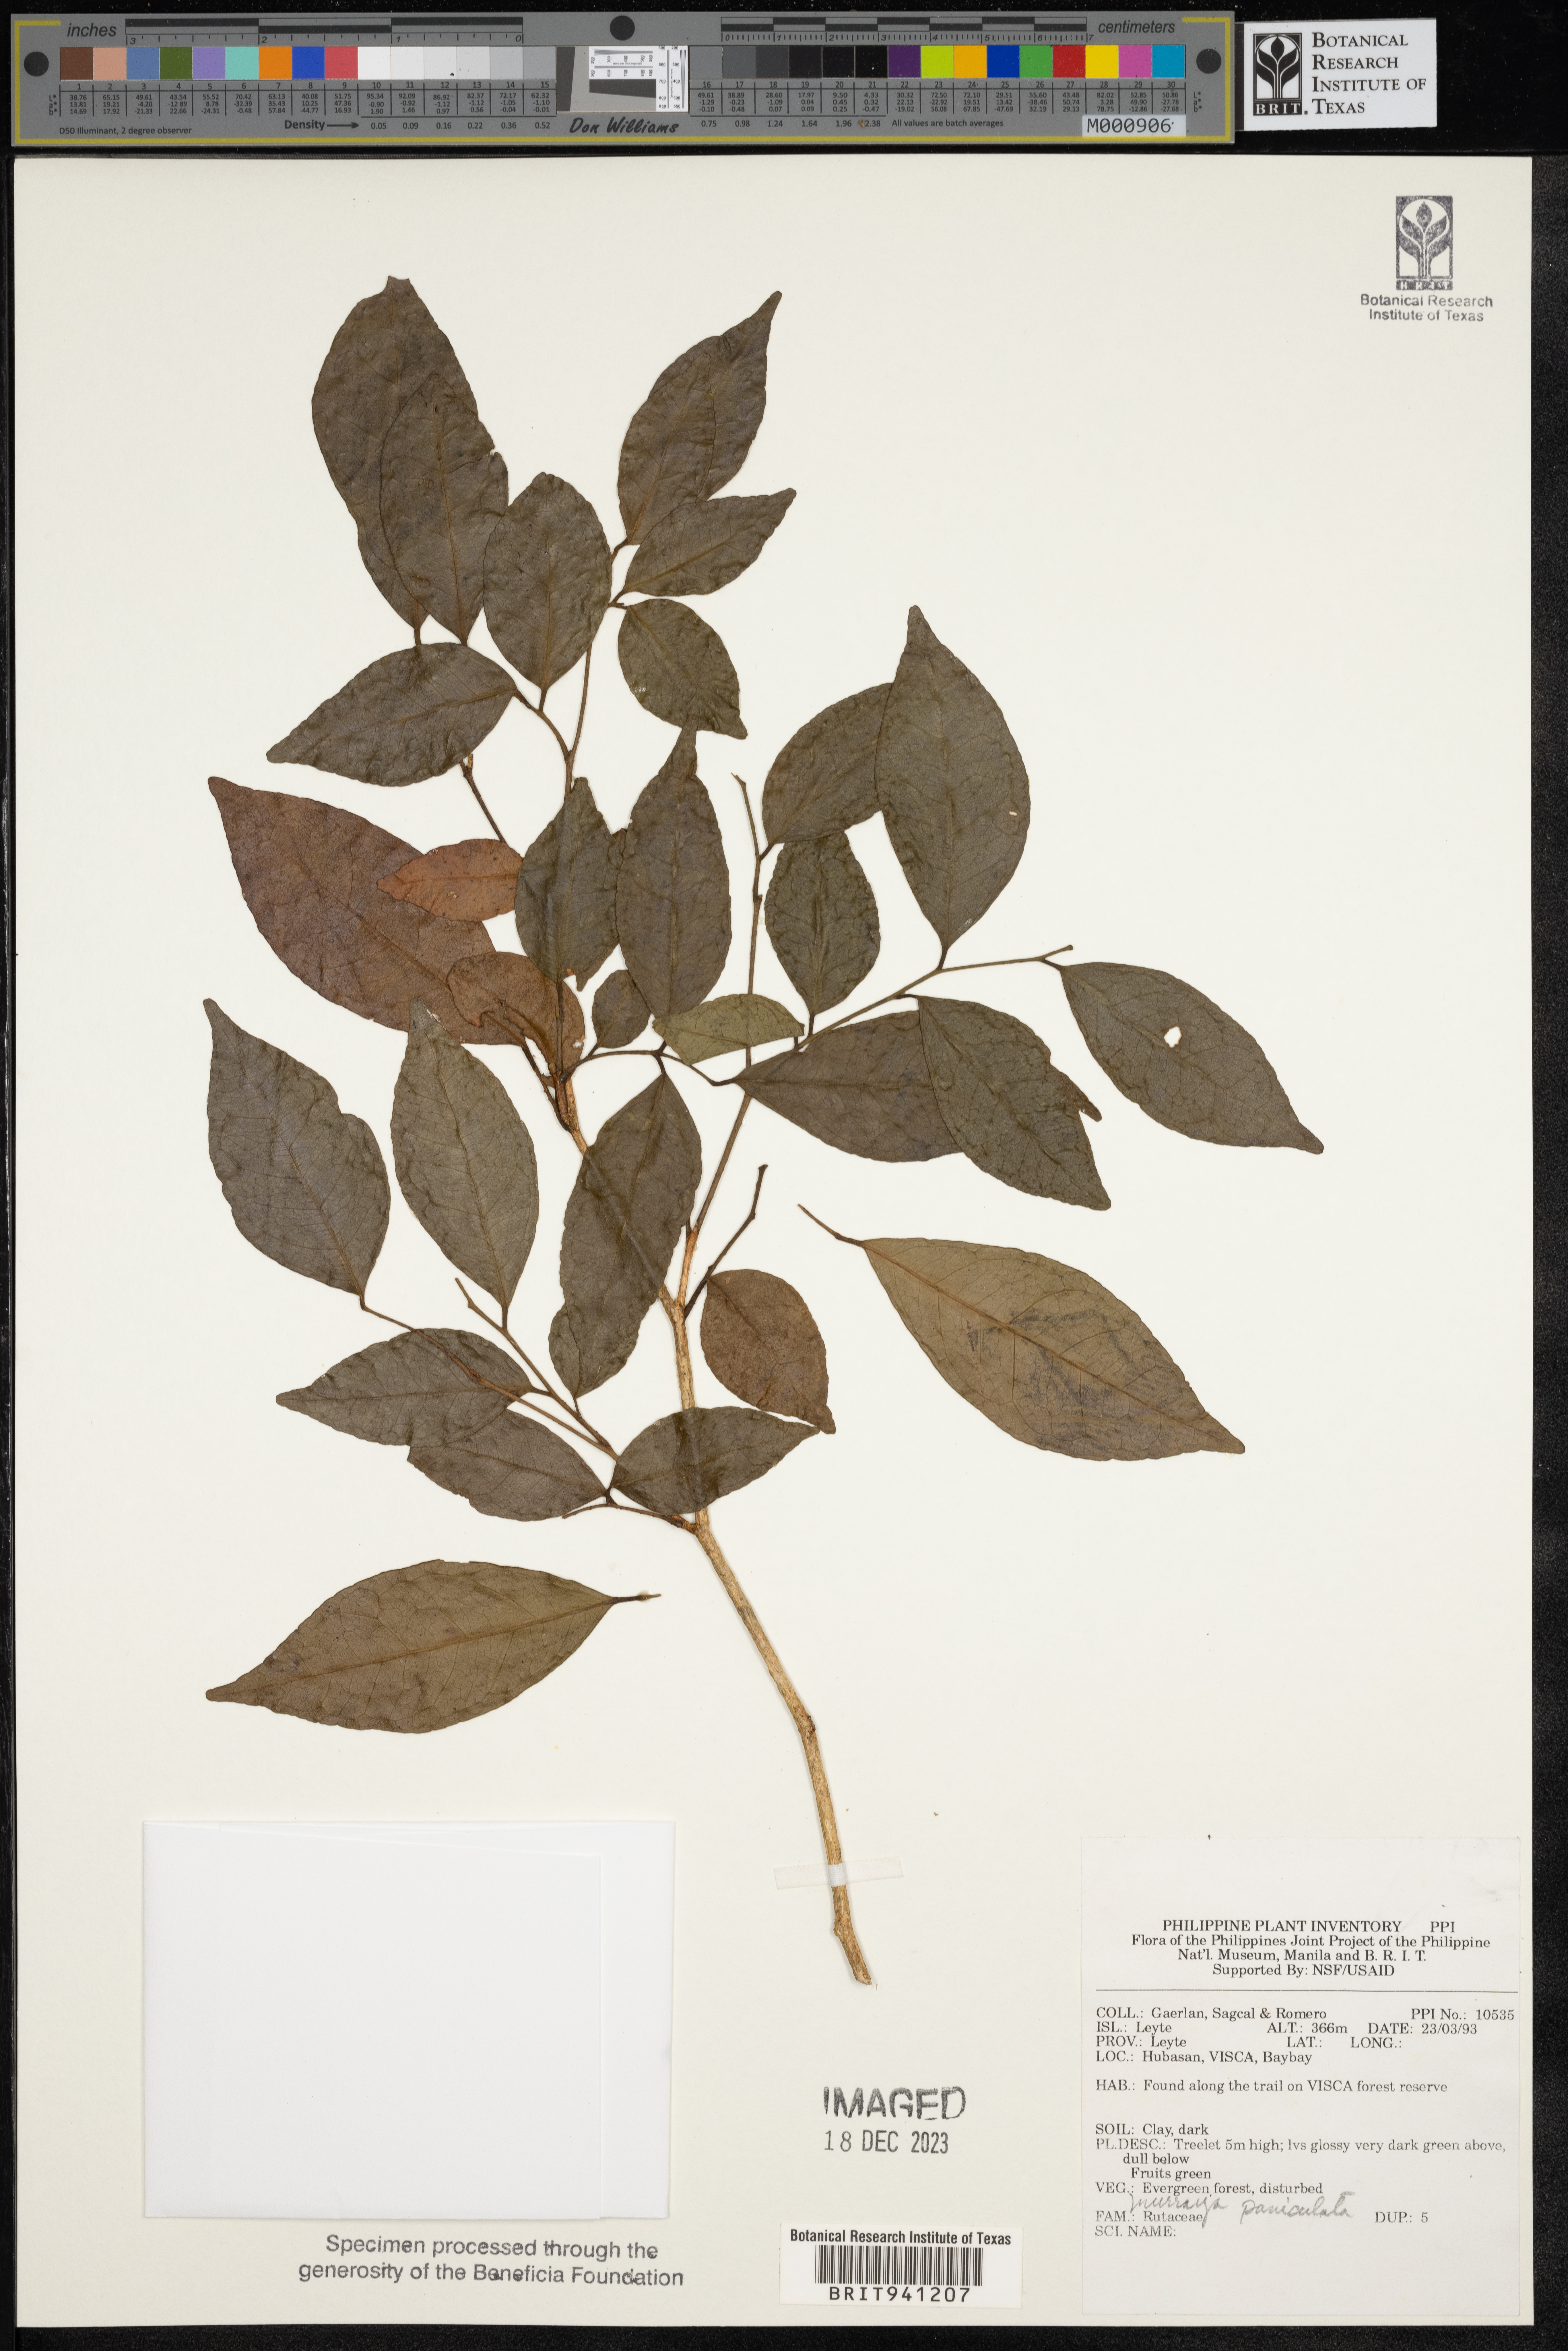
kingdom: Plantae
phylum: Tracheophyta
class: Magnoliopsida
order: Sapindales
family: Rutaceae
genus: Murraya
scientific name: Murraya
